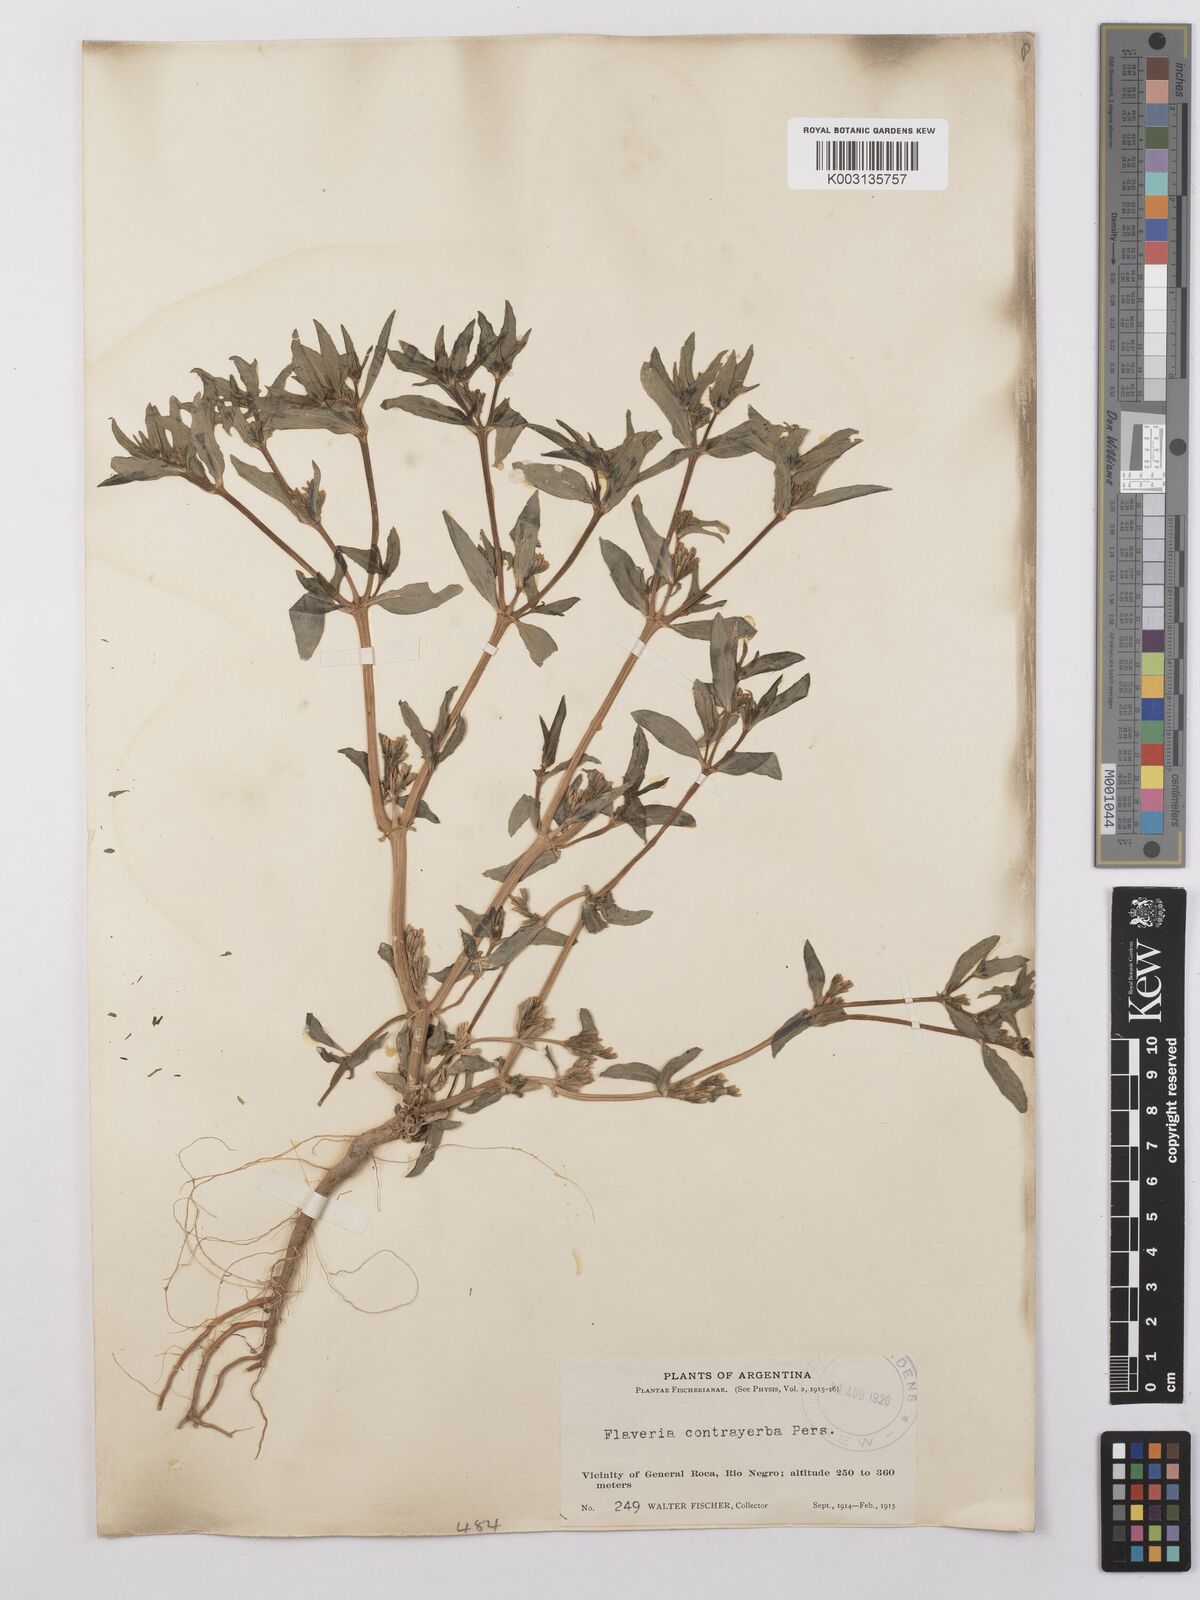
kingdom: Plantae
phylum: Tracheophyta
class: Magnoliopsida
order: Asterales
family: Asteraceae
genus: Flaveria
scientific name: Flaveria bidentis
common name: Coastal plain yellowtops
